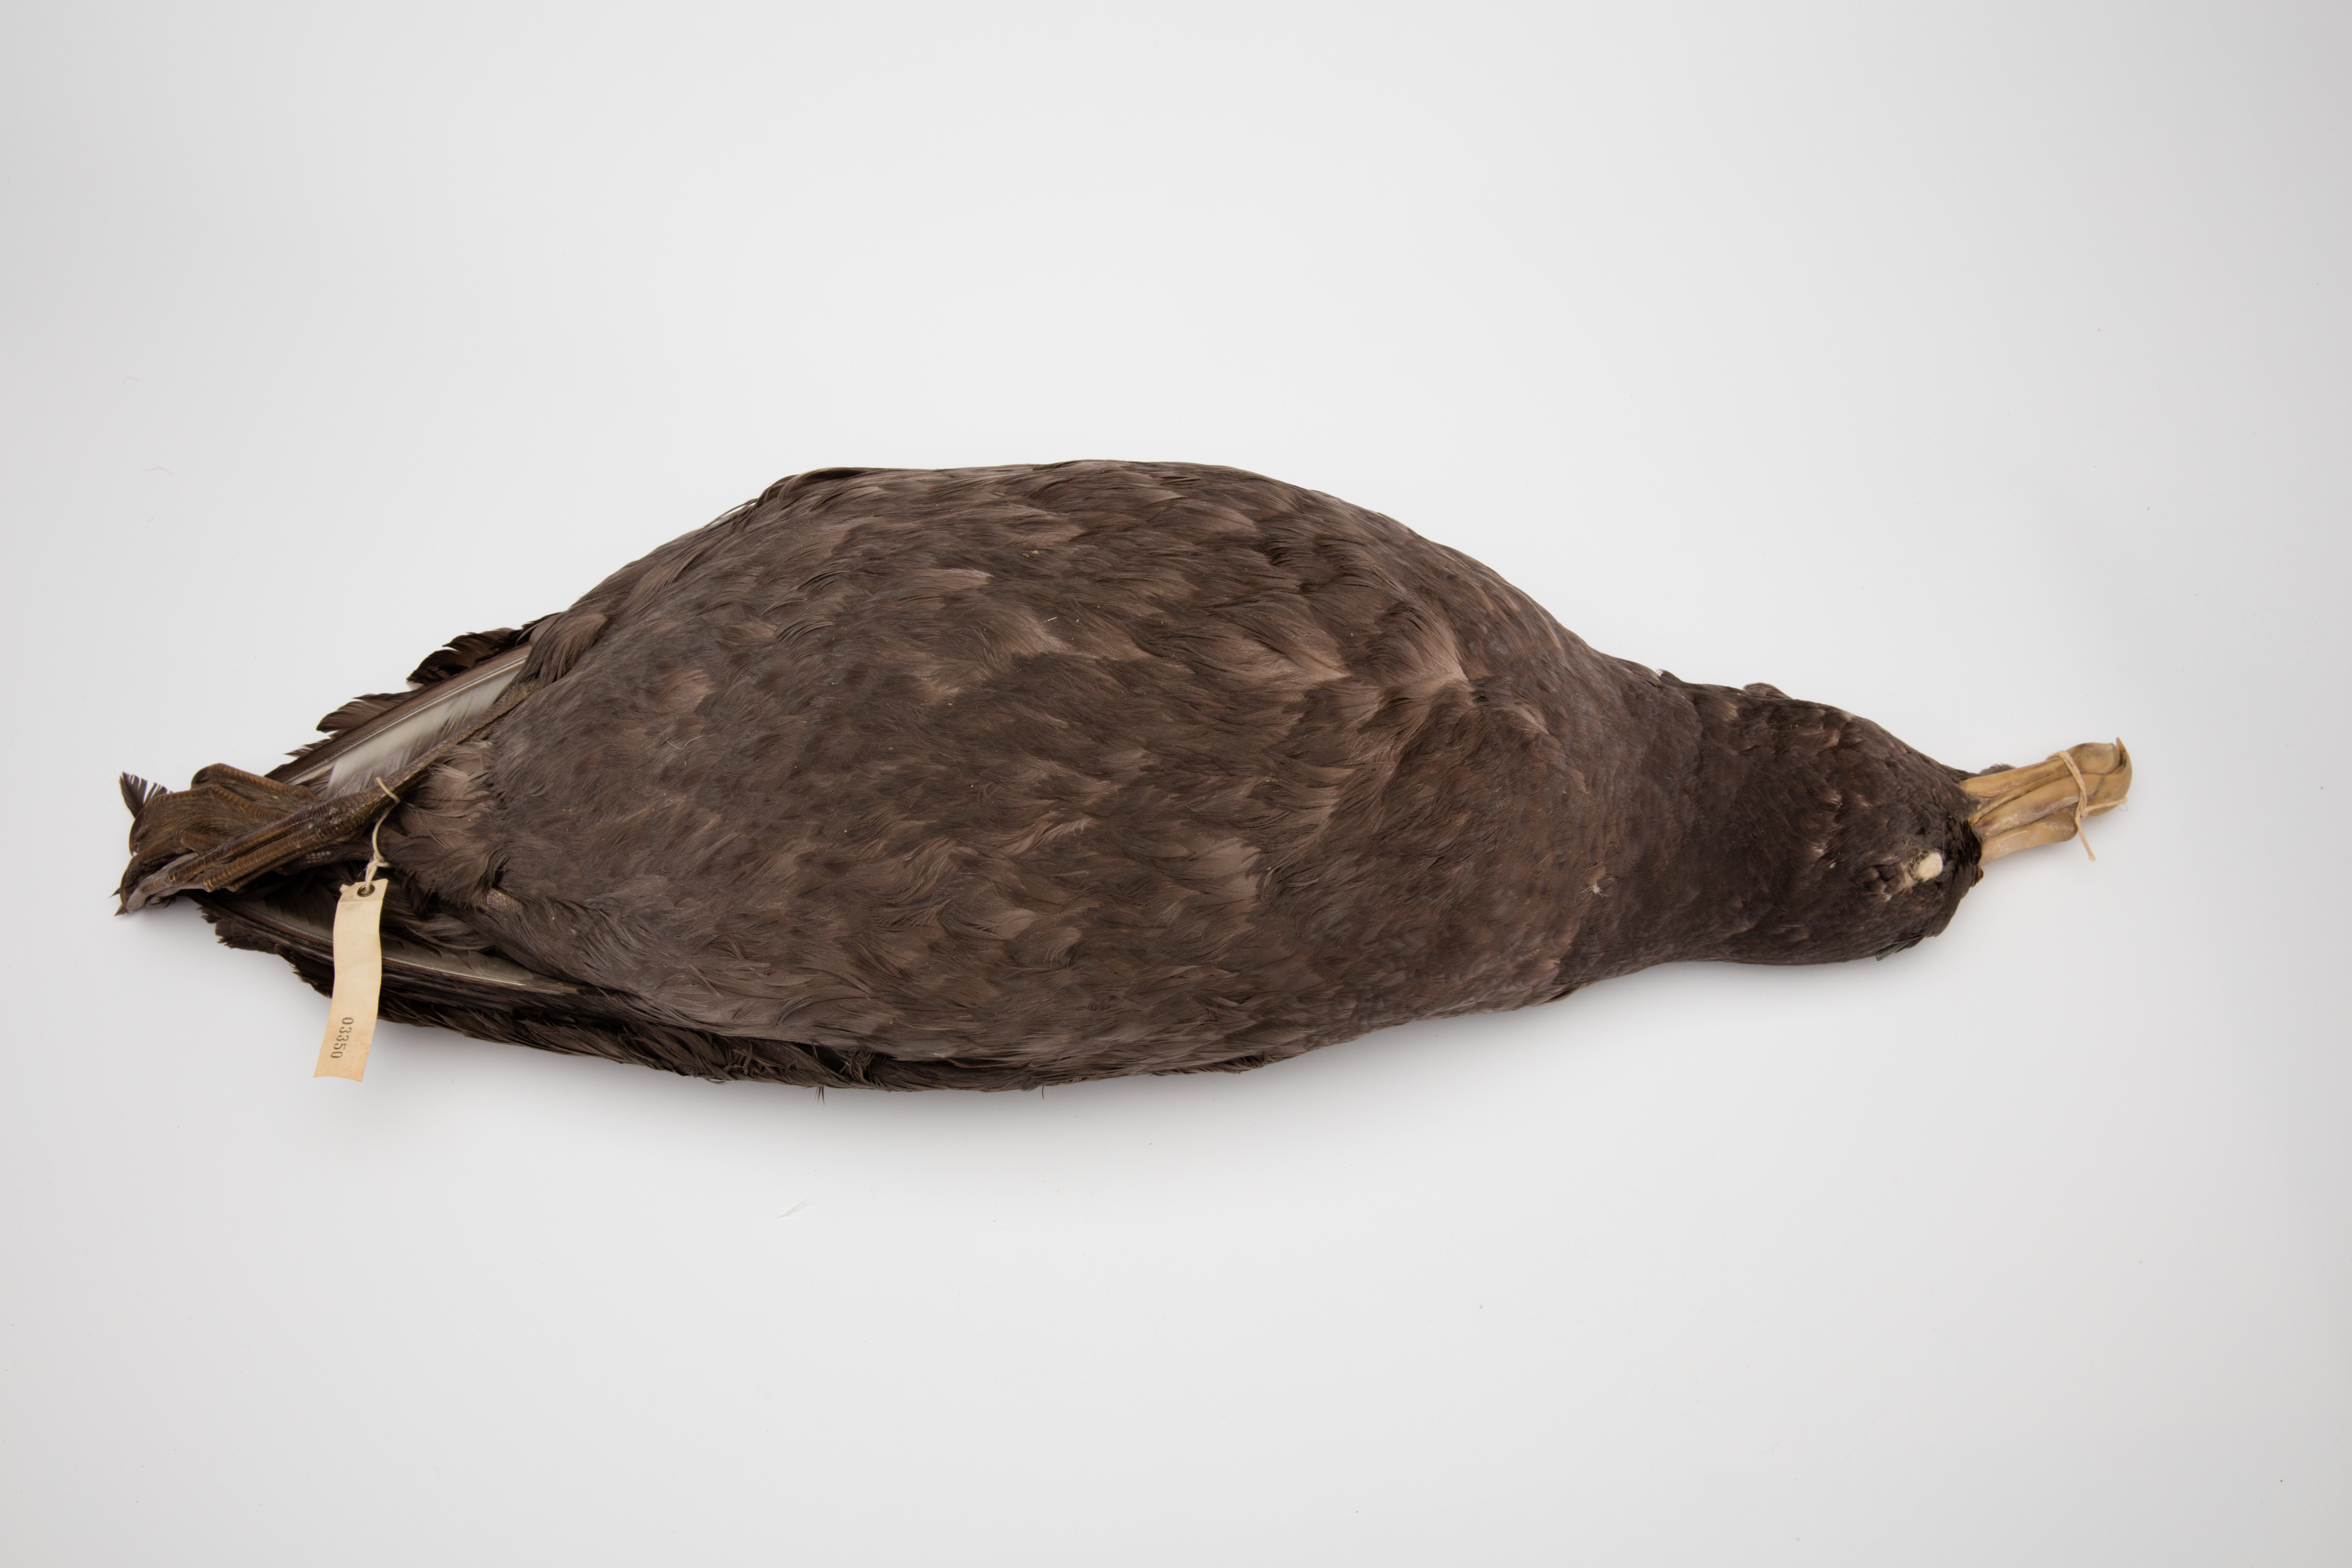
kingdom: Animalia
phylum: Chordata
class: Aves
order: Procellariiformes
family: Procellariidae
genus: Macronectes
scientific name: Macronectes giganteus
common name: Southern giant petrel
